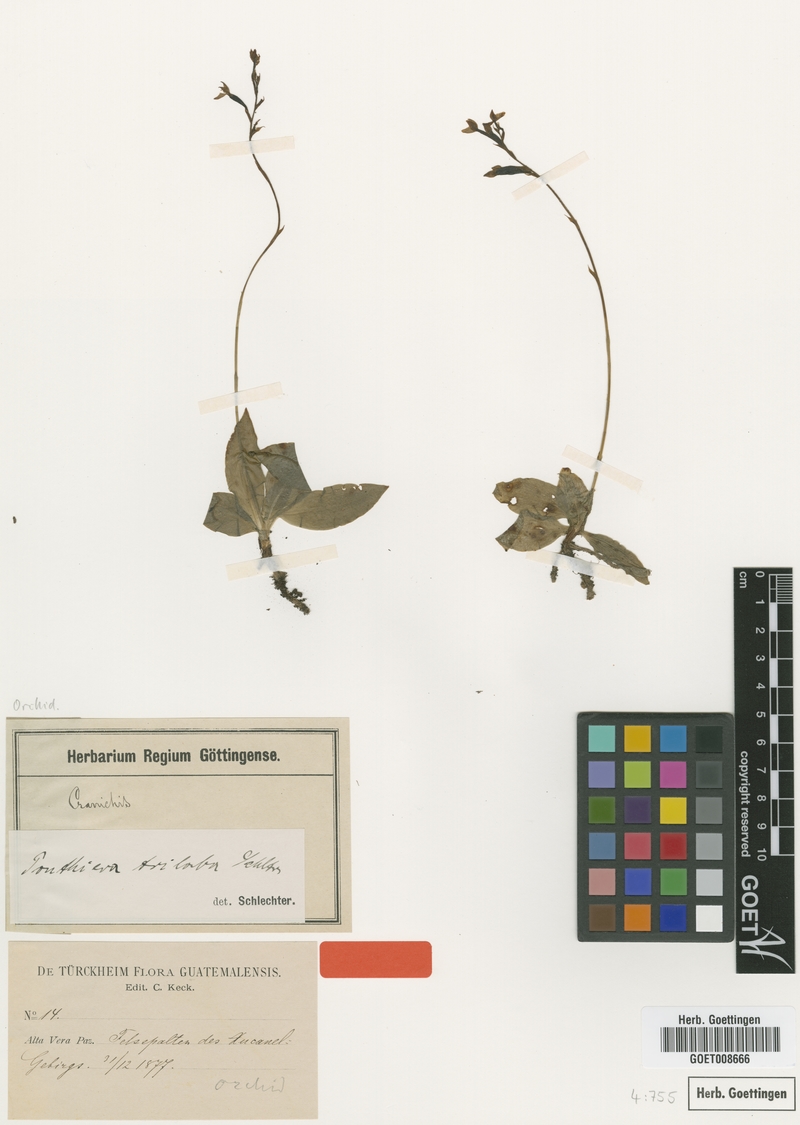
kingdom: Plantae
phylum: Tracheophyta
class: Liliopsida
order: Asparagales
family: Orchidaceae
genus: Ponthieva
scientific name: Ponthieva triloba
